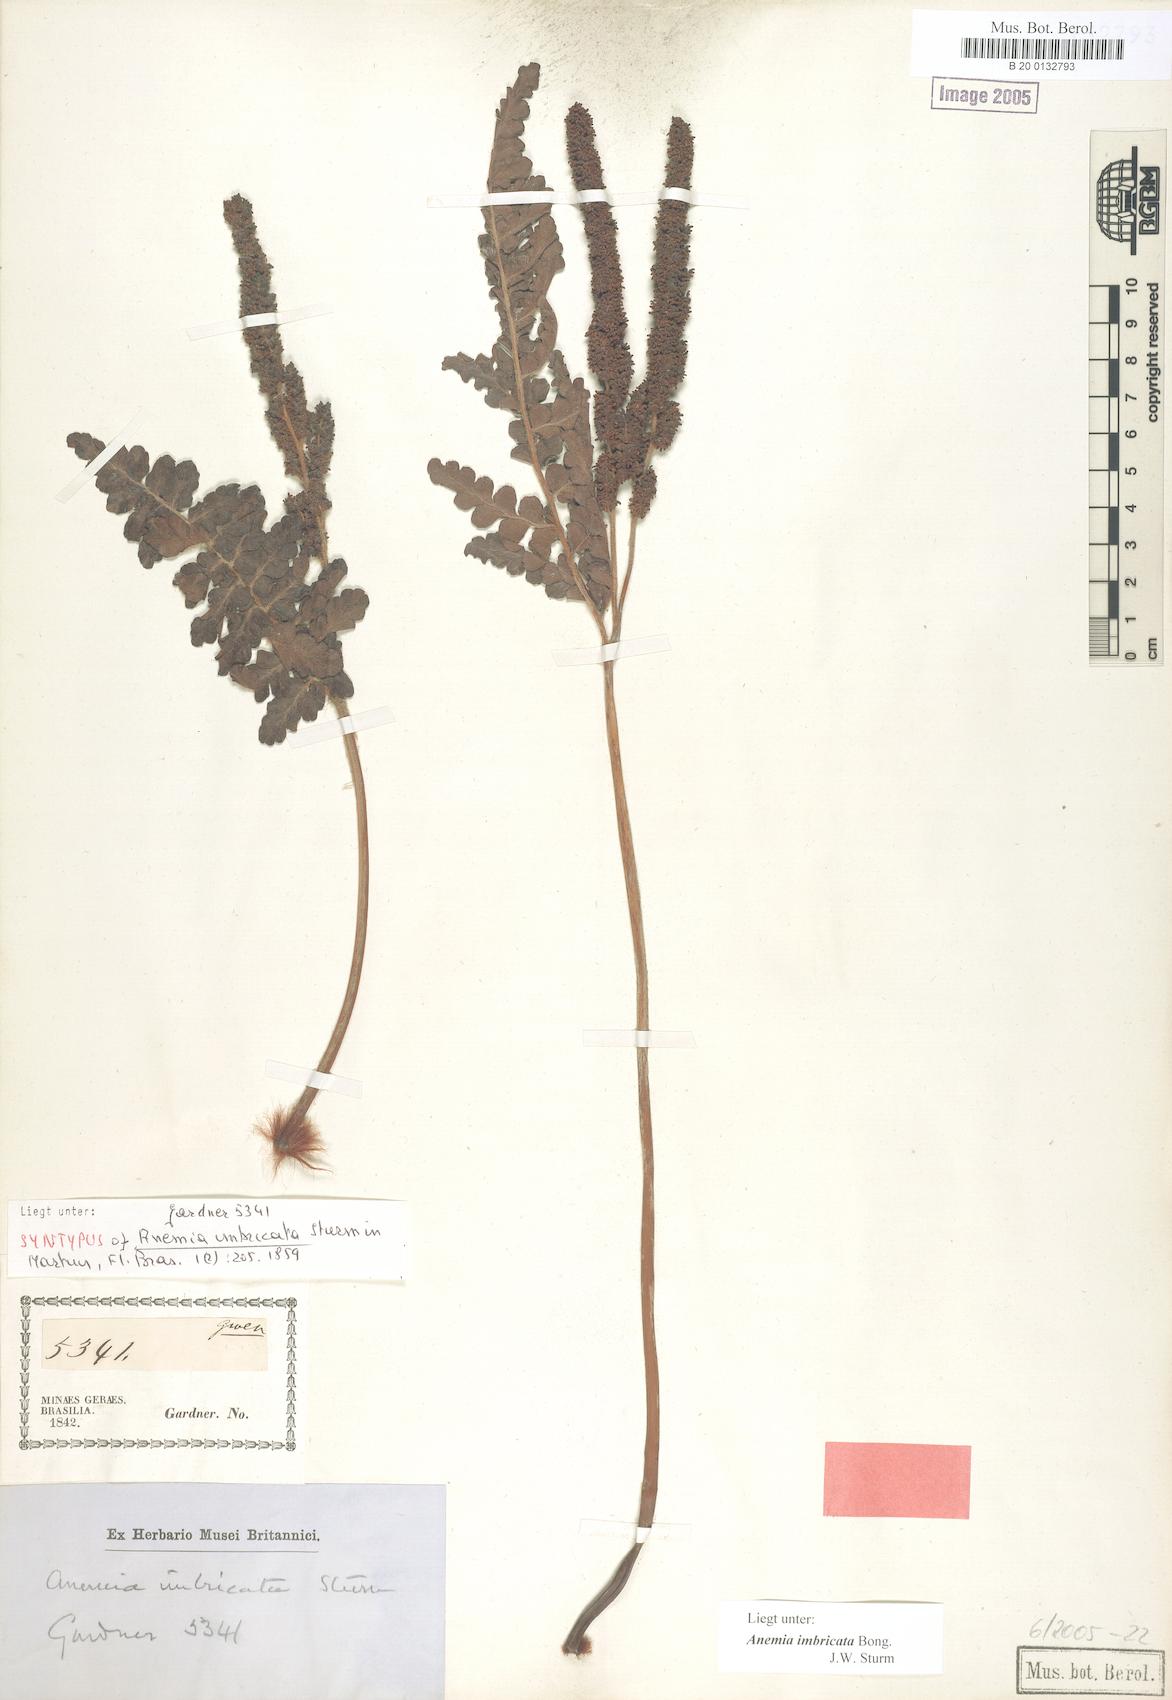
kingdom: Plantae
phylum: Tracheophyta
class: Polypodiopsida
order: Schizaeales
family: Anemiaceae
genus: Anemia
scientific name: Anemia imbricata
